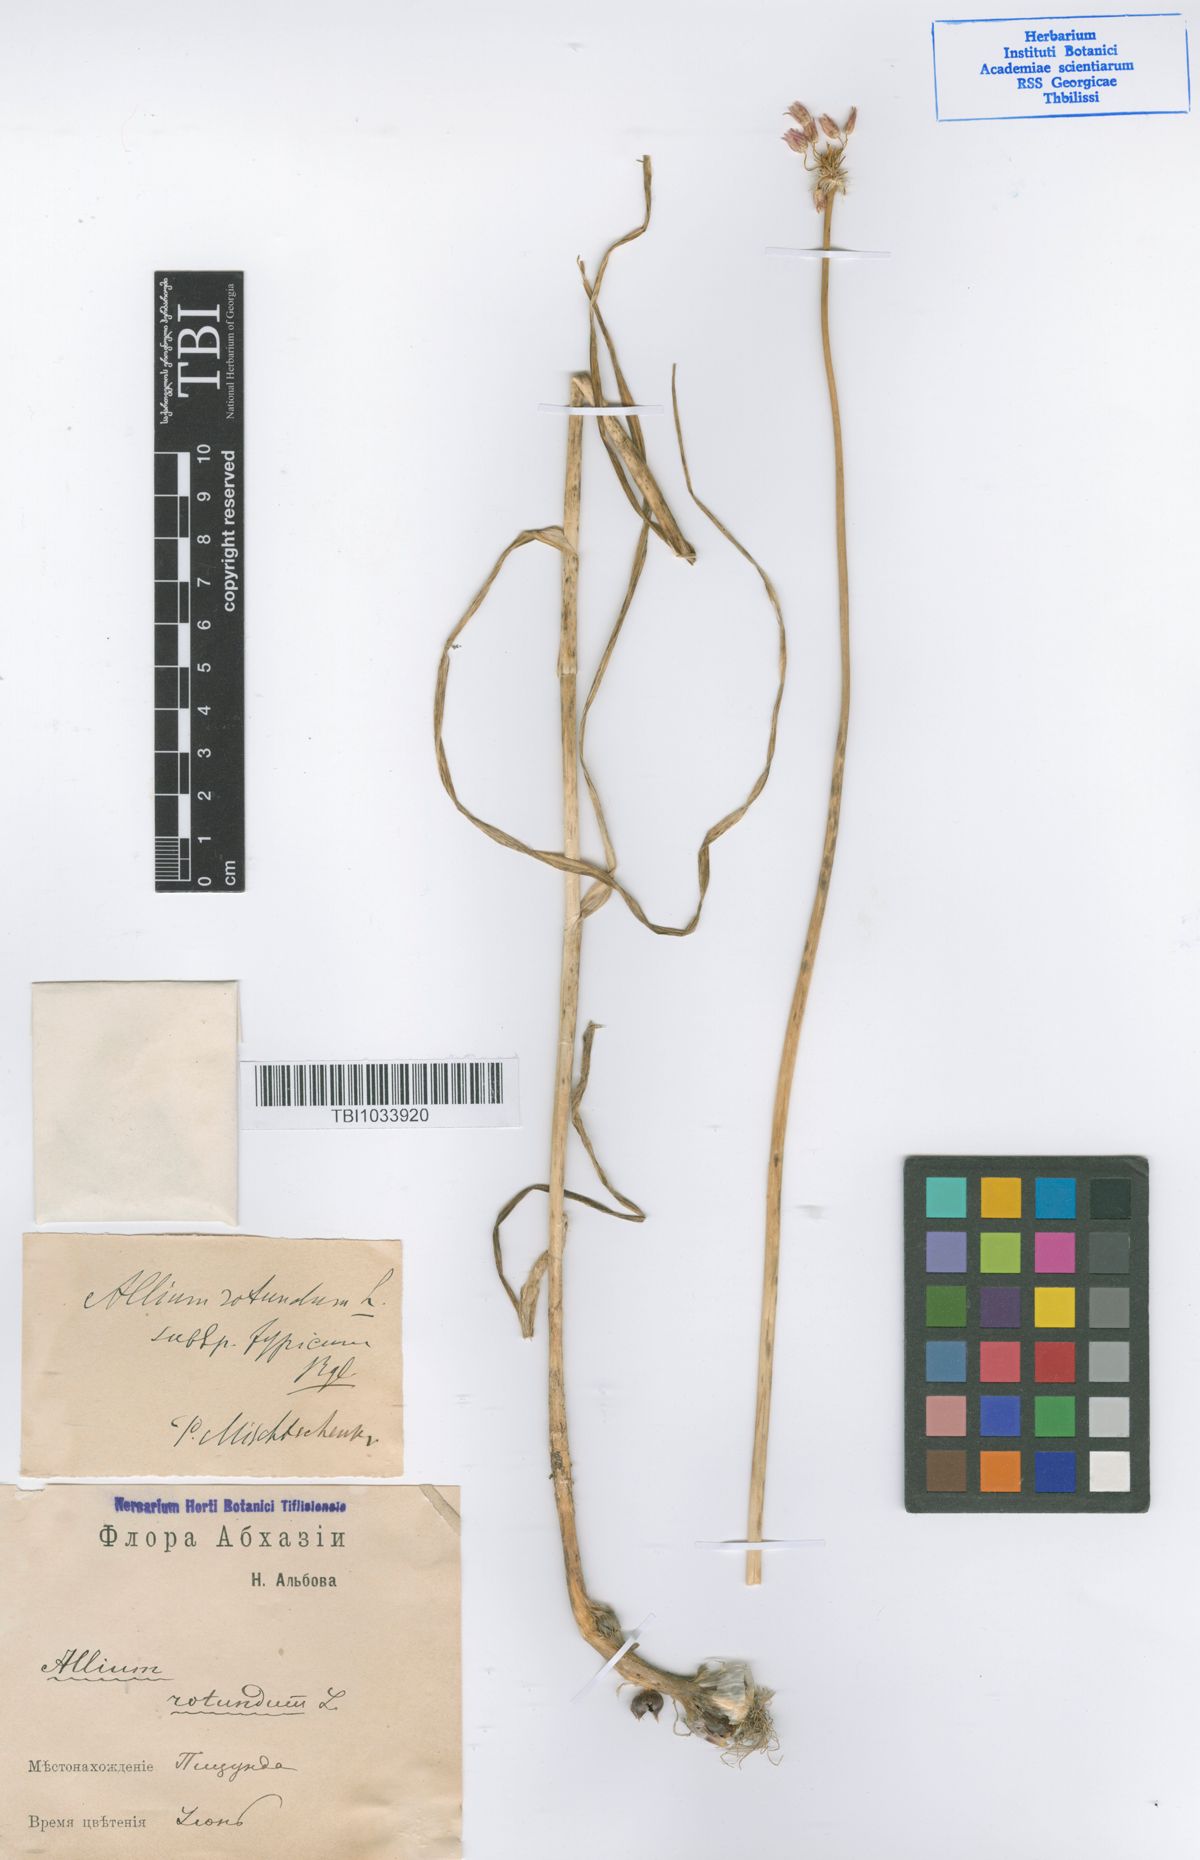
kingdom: Plantae
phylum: Tracheophyta
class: Liliopsida
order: Asparagales
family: Amaryllidaceae
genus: Allium
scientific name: Allium rotundum
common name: Sand leek
